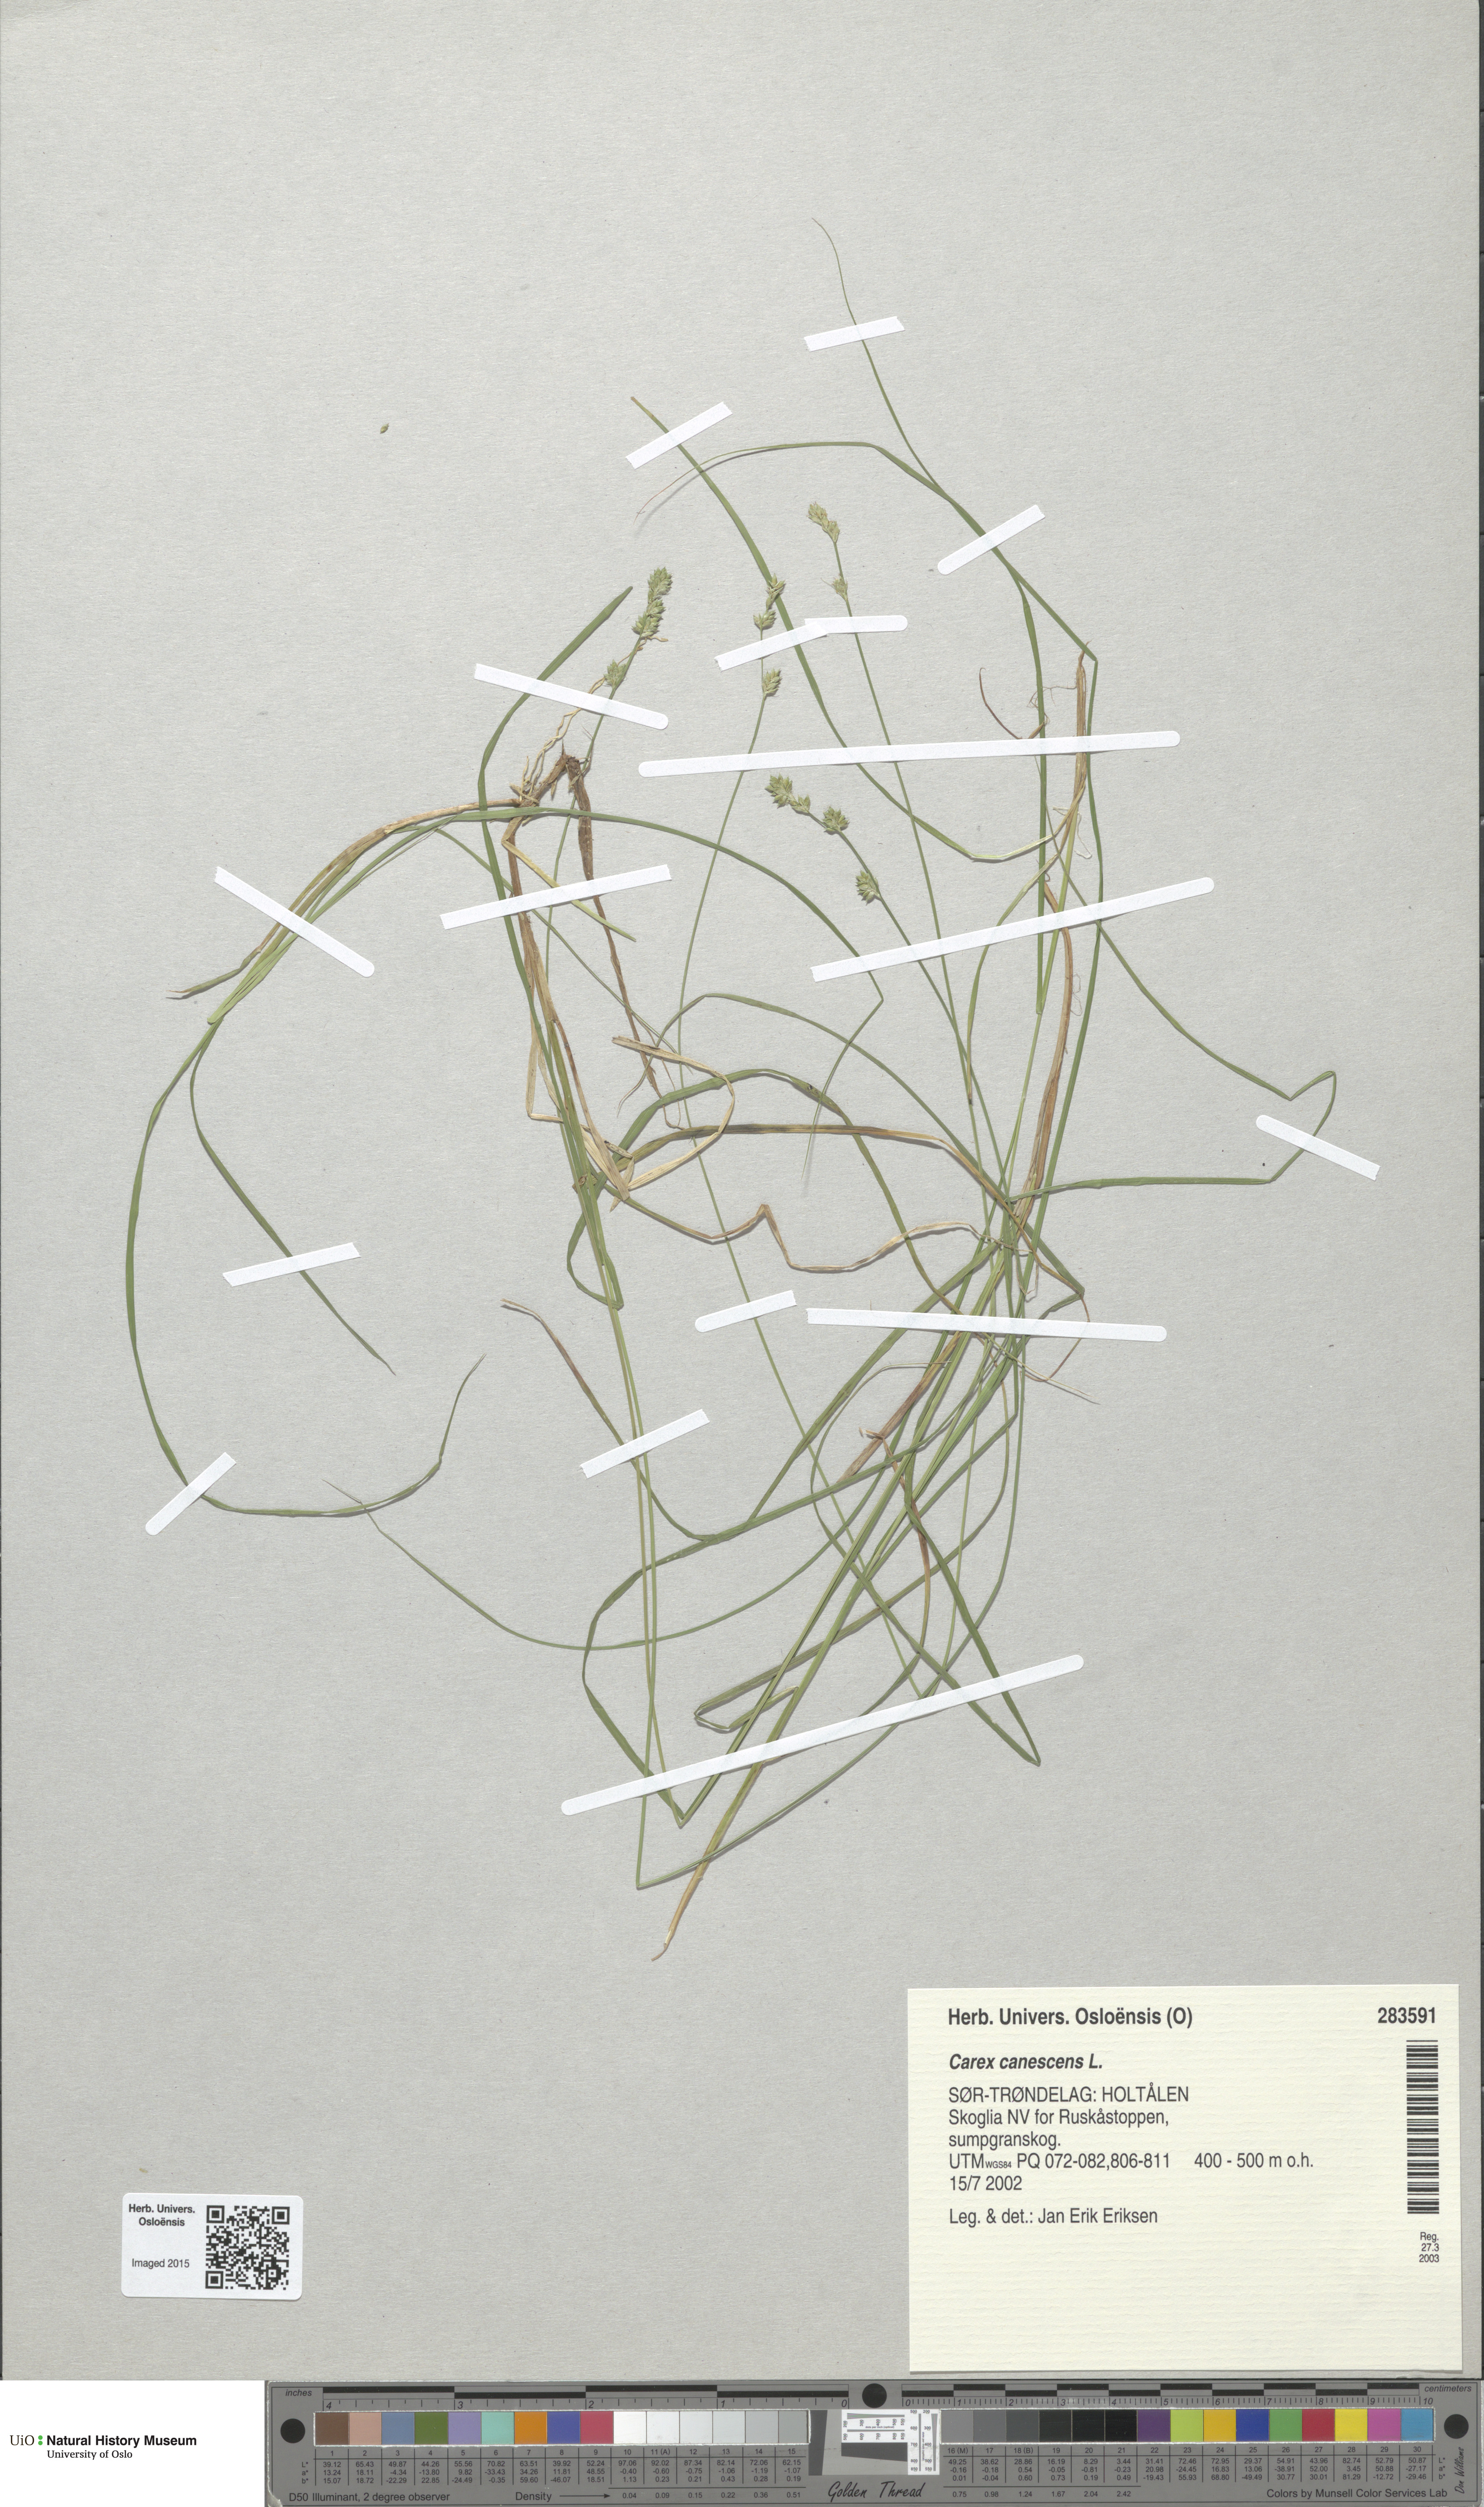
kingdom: Plantae
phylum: Tracheophyta
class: Liliopsida
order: Poales
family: Cyperaceae
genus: Carex
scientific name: Carex canescens
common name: White sedge
